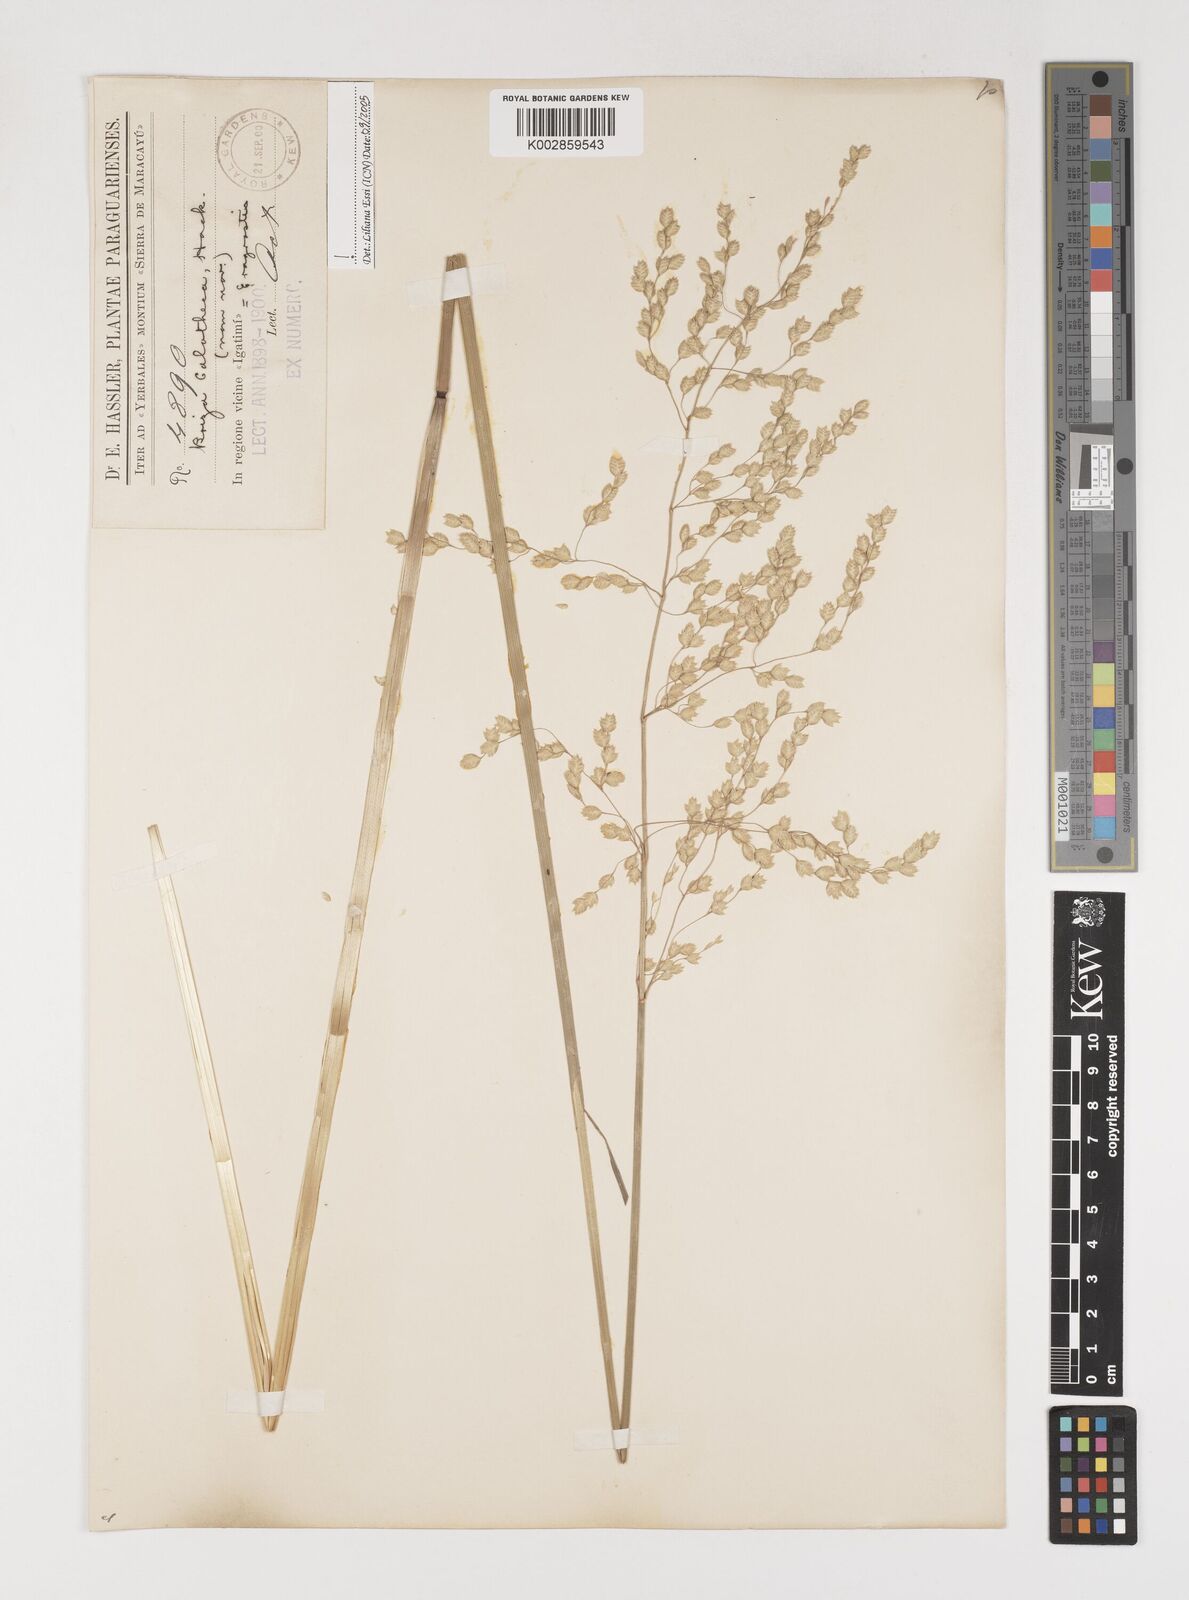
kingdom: Plantae
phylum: Tracheophyta
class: Liliopsida
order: Poales
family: Poaceae
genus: Poidium
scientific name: Poidium calotheca
